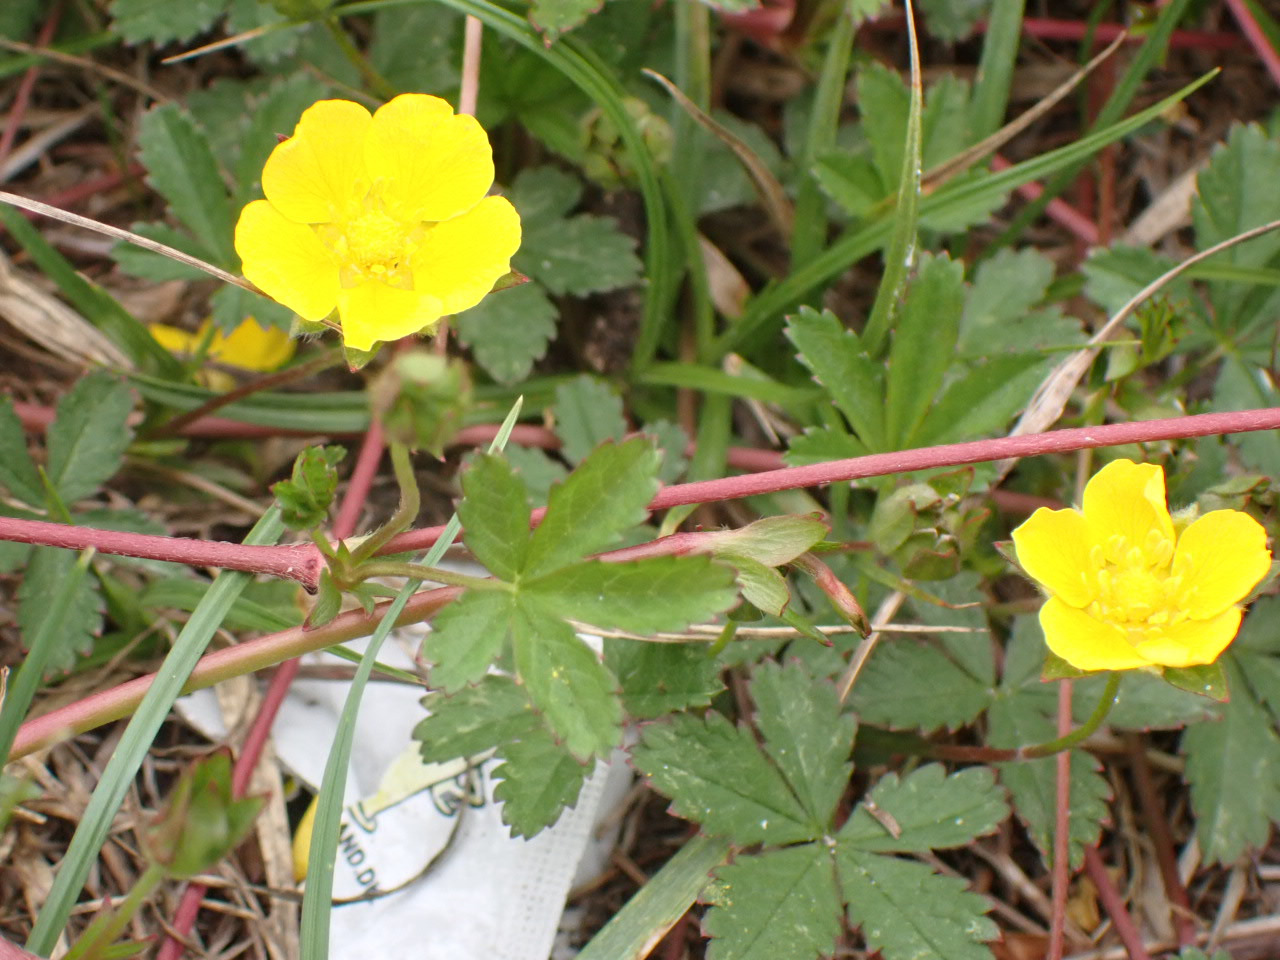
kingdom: Plantae
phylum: Tracheophyta
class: Magnoliopsida
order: Rosales
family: Rosaceae
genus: Potentilla
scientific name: Potentilla reptans
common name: Krybende potentil
